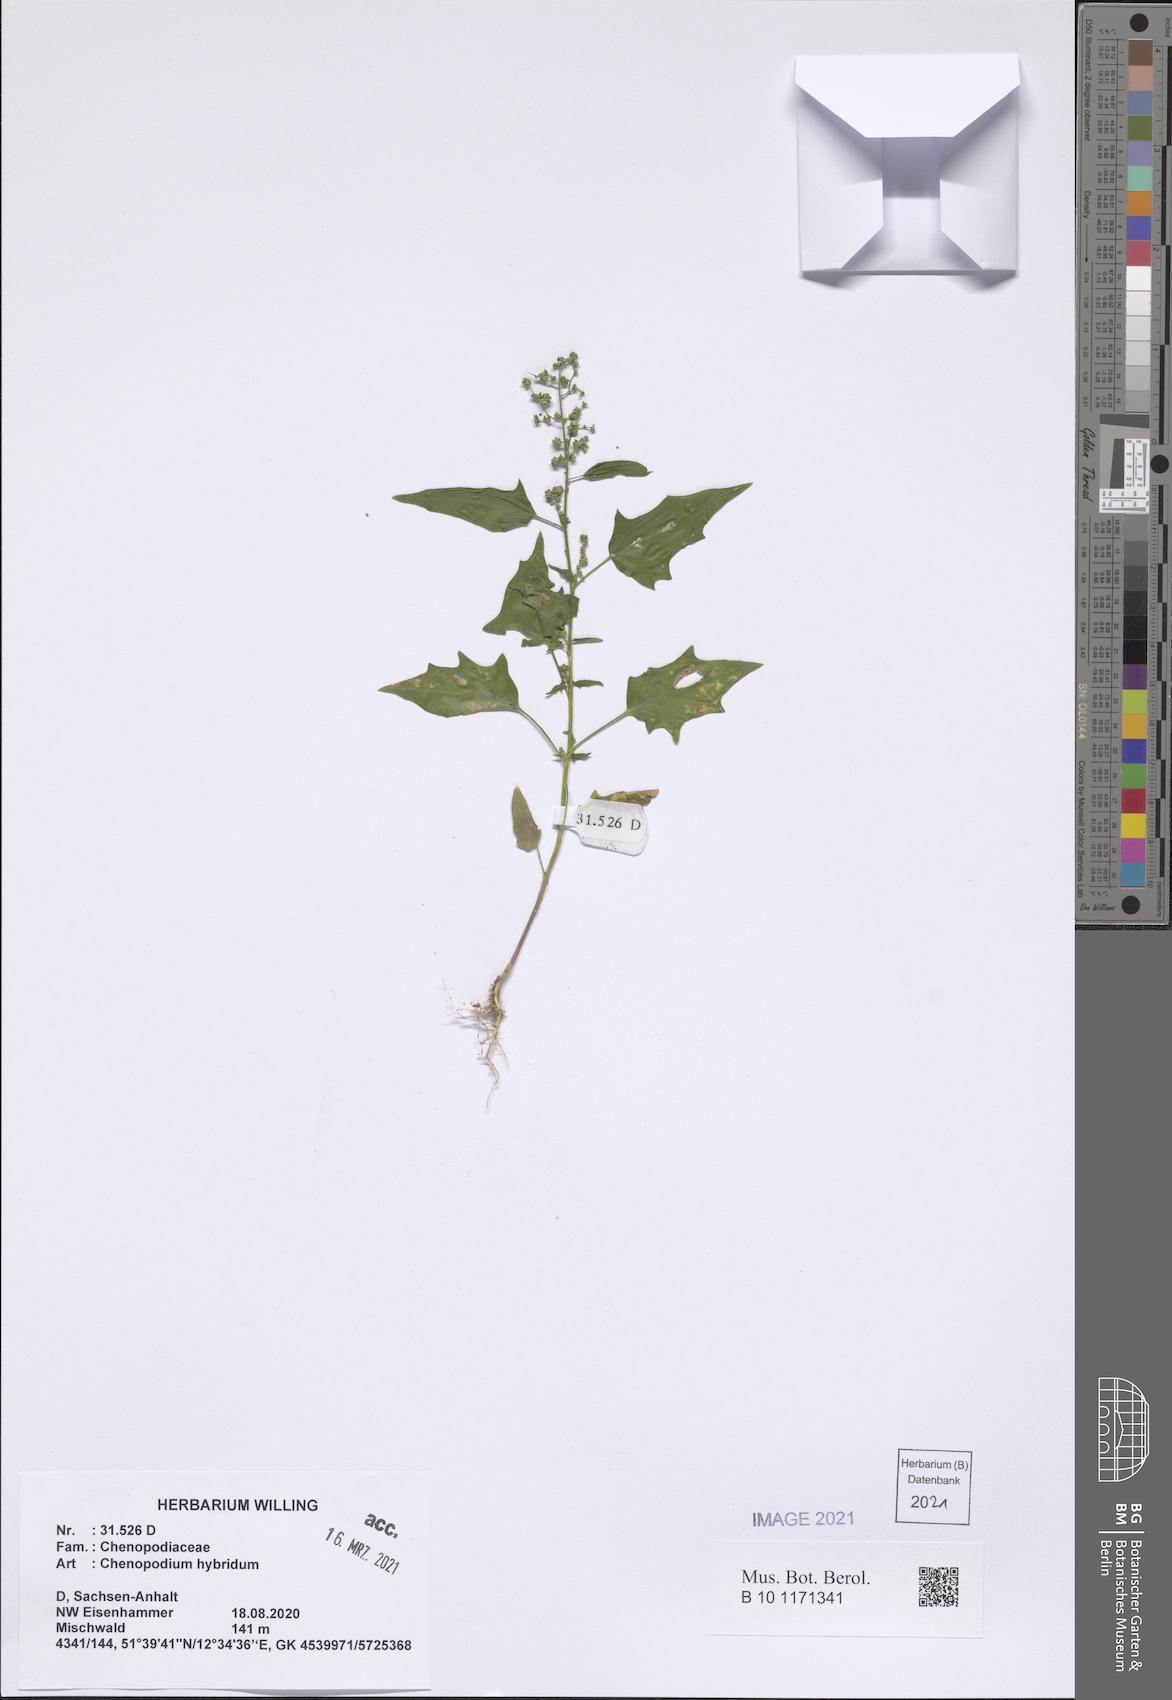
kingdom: Plantae
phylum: Tracheophyta
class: Magnoliopsida
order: Caryophyllales
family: Amaranthaceae
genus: Chenopodiastrum
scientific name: Chenopodiastrum hybridum
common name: Mapleleaf goosefoot
